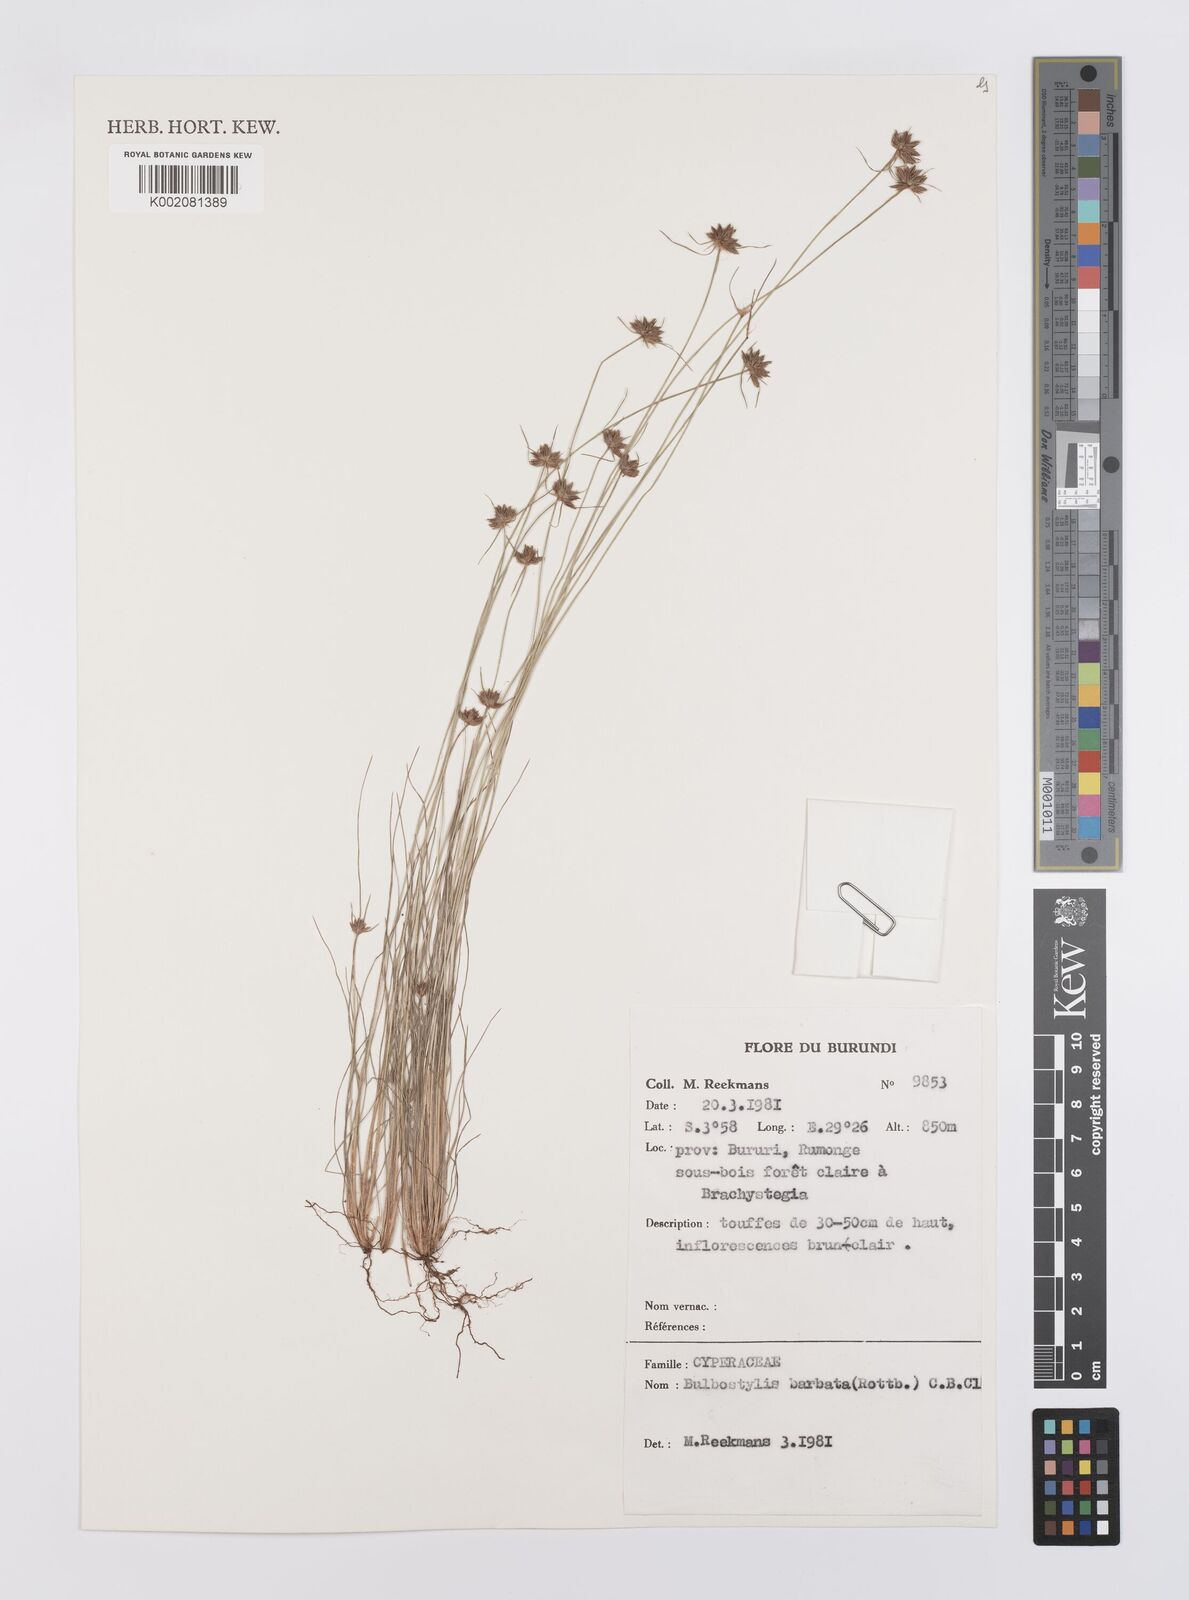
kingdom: Plantae
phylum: Tracheophyta
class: Liliopsida
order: Poales
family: Cyperaceae
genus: Bulbostylis
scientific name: Bulbostylis barbata
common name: Watergrass
